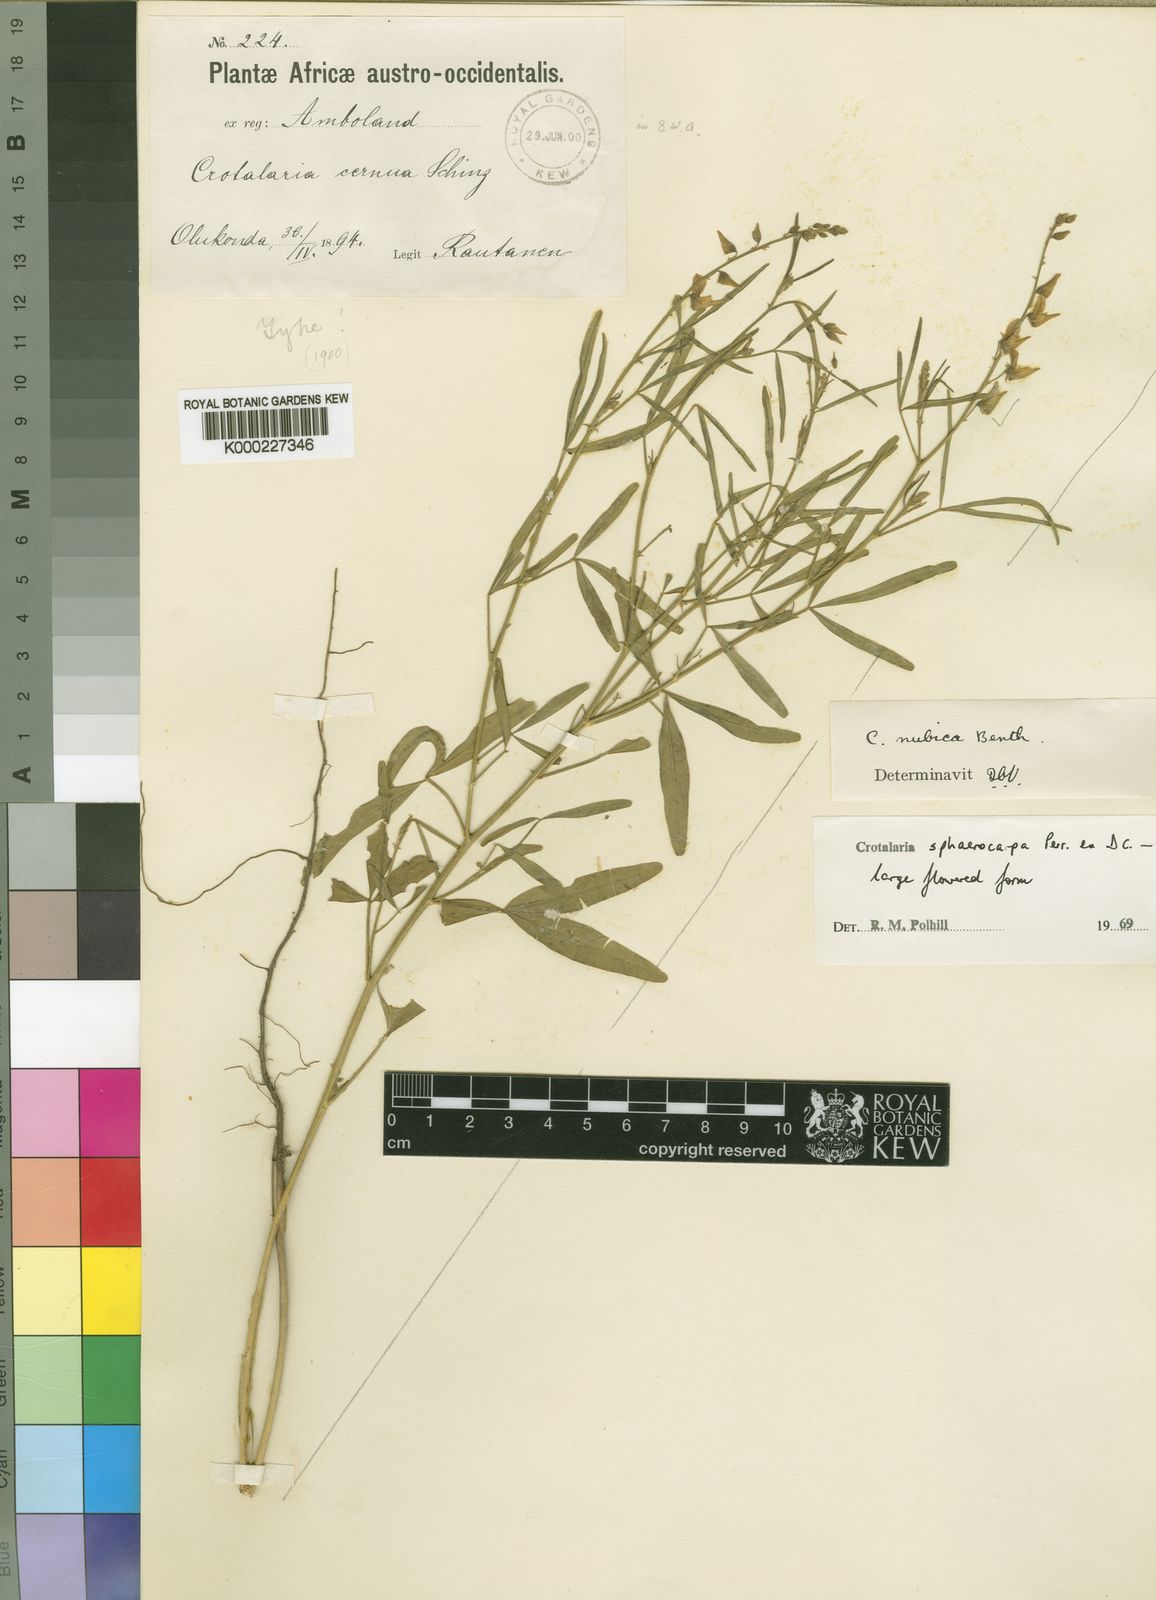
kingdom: Plantae
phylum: Tracheophyta
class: Magnoliopsida
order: Fabales
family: Fabaceae
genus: Crotalaria
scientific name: Crotalaria sphaerocarpa
